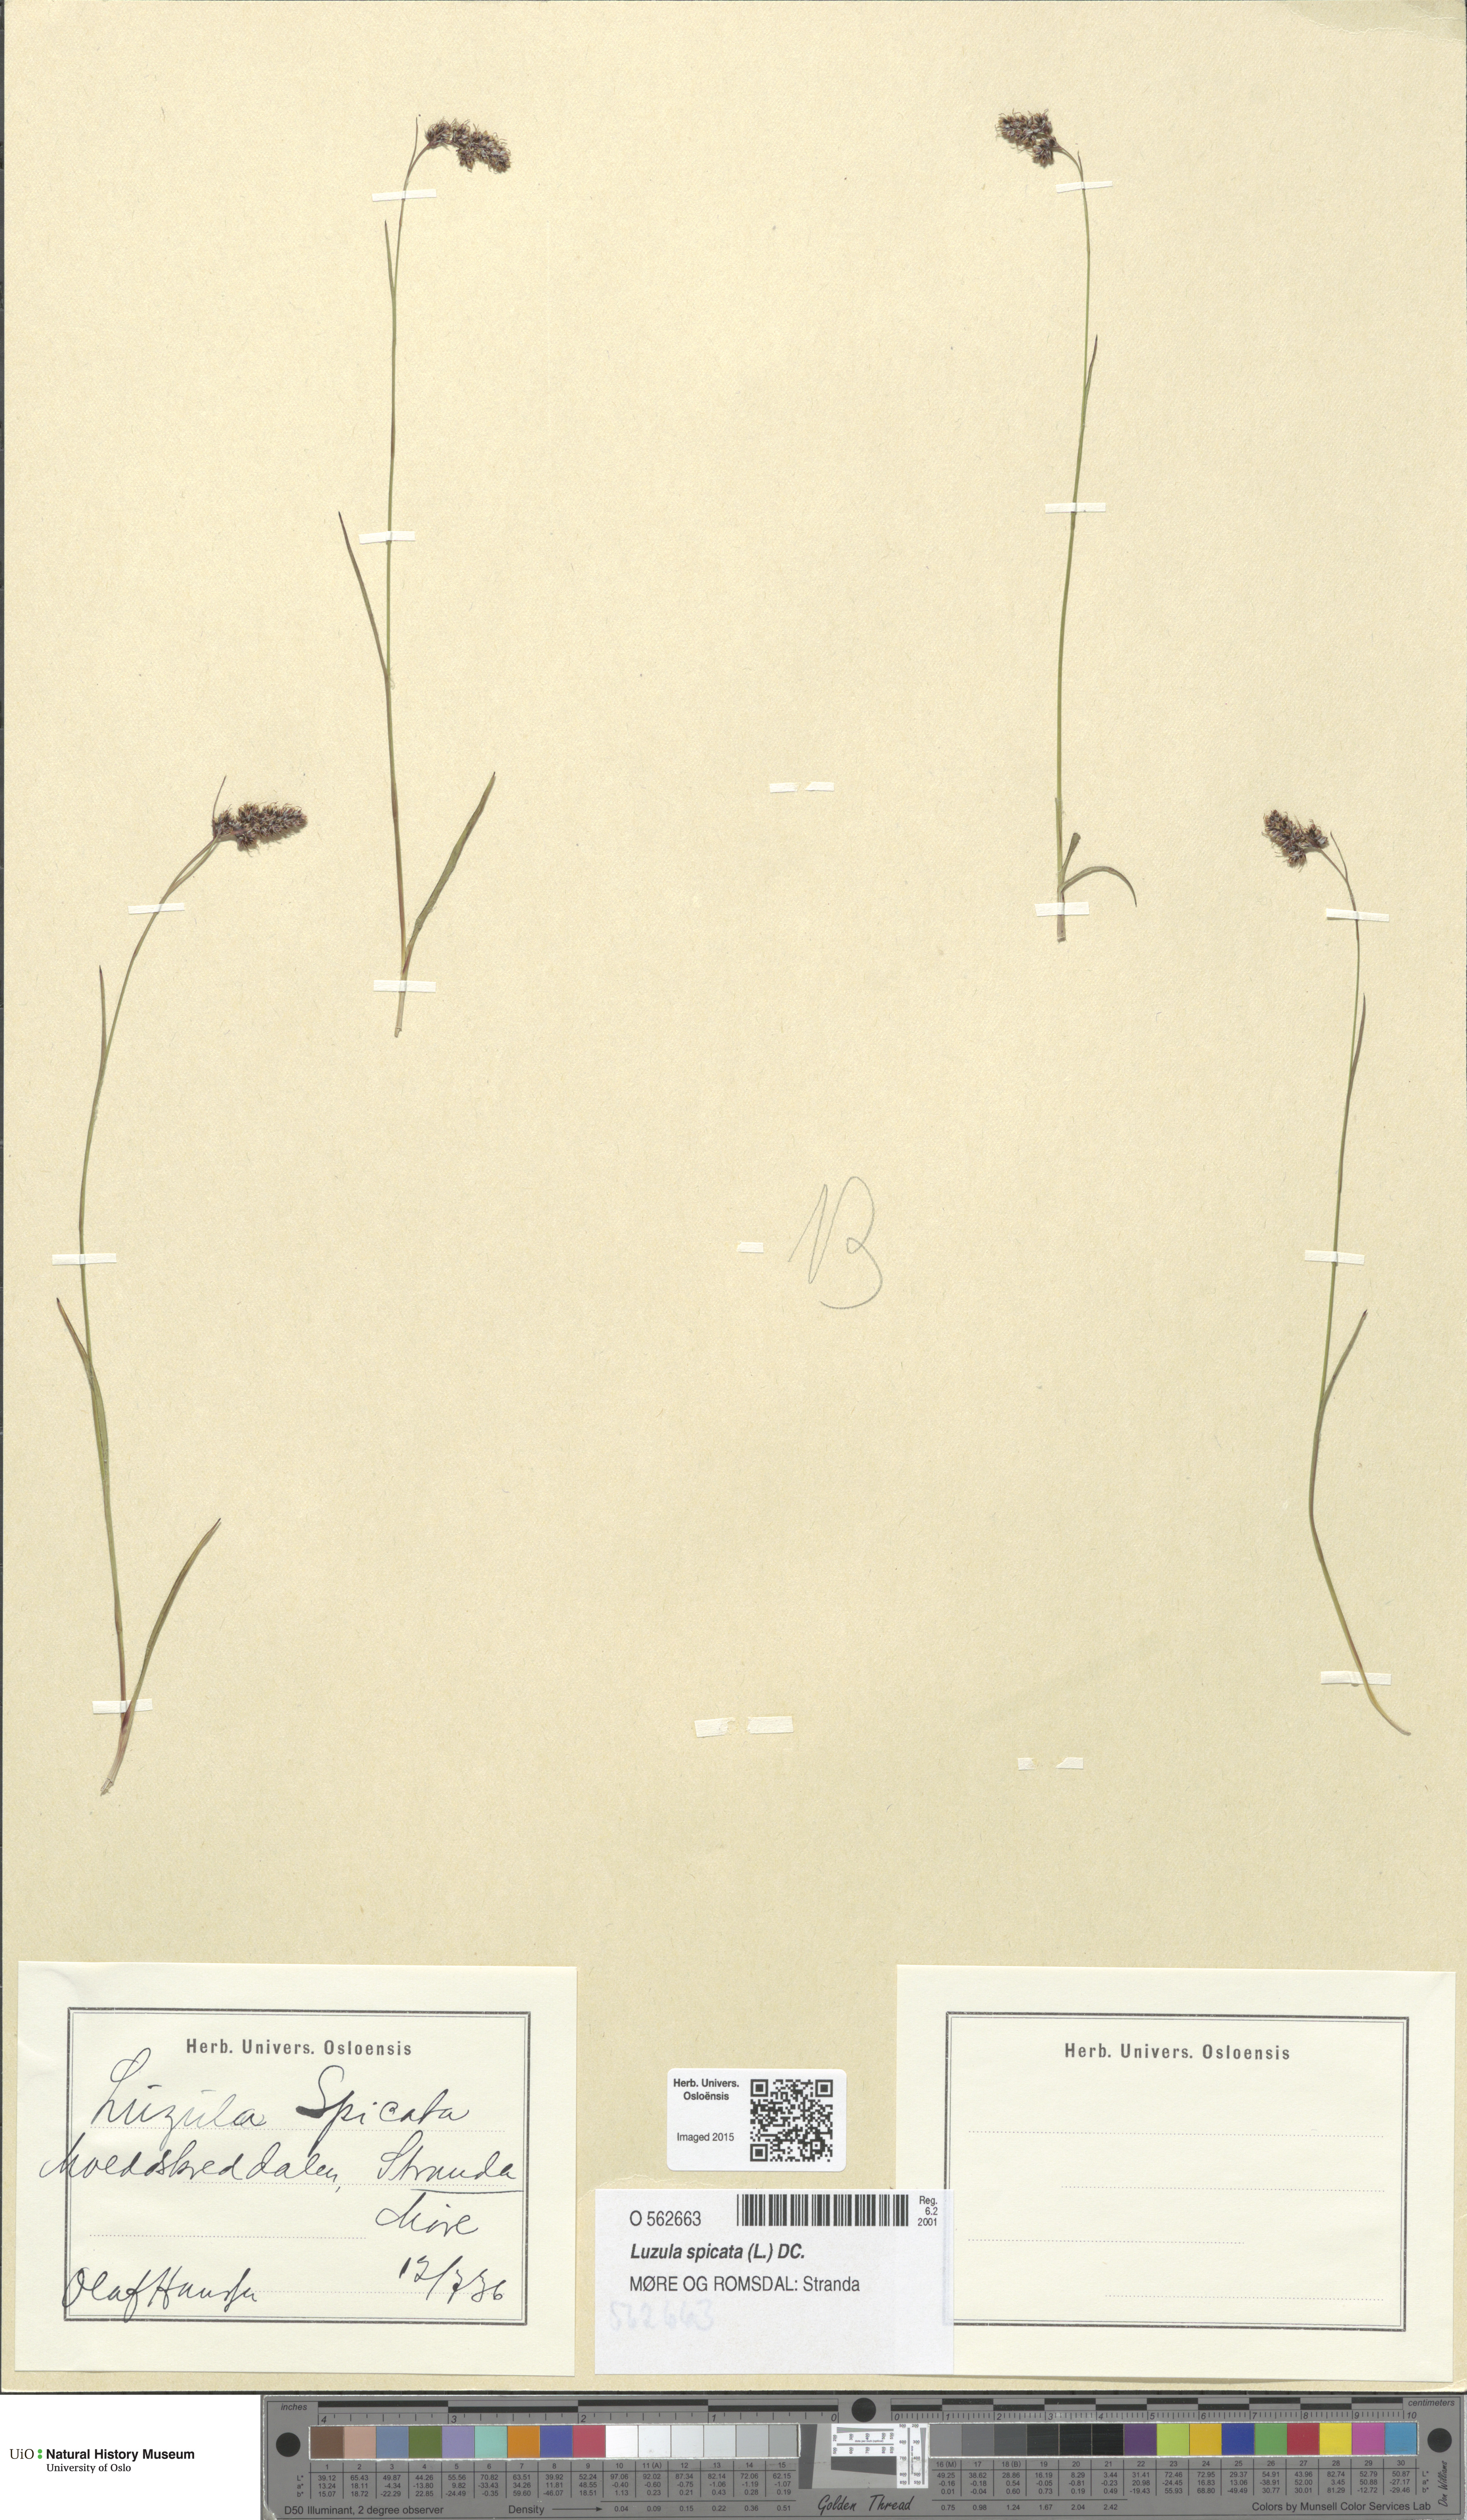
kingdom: Plantae
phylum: Tracheophyta
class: Liliopsida
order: Poales
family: Juncaceae
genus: Luzula
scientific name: Luzula spicata
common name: Spiked wood-rush
